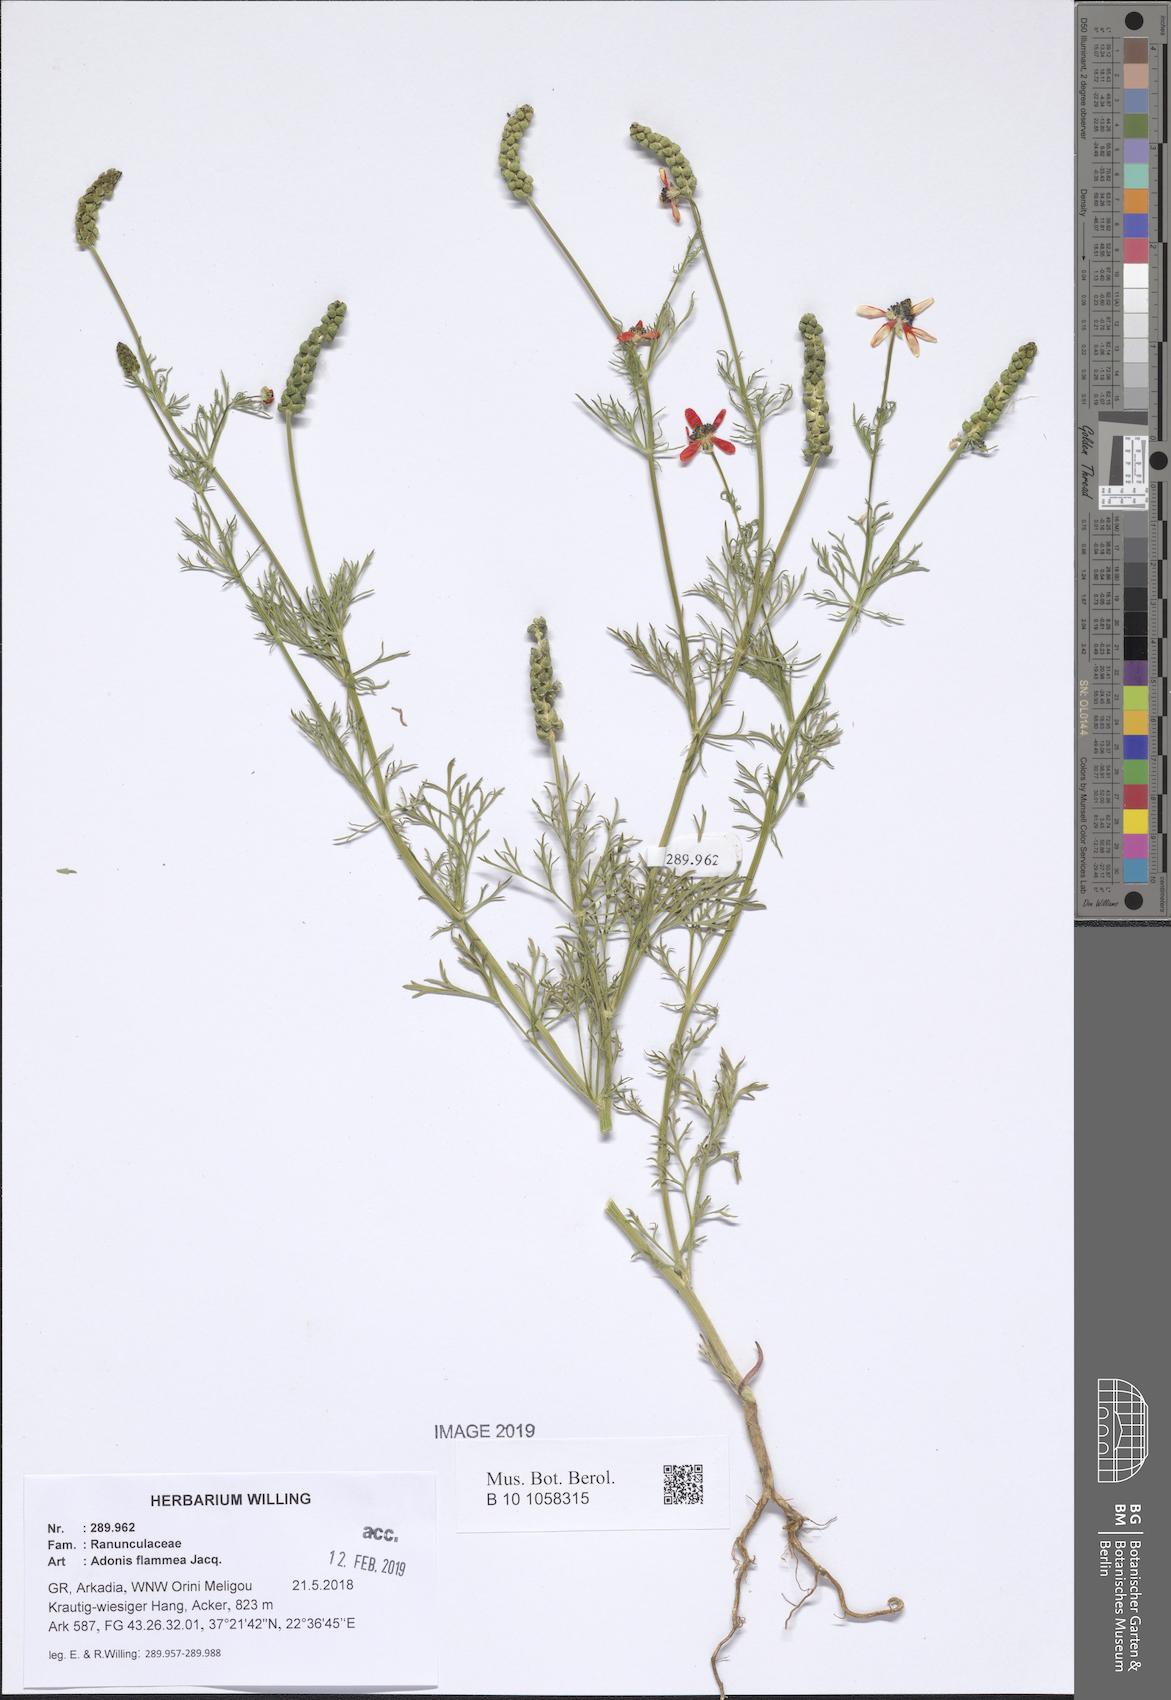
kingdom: Plantae
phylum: Tracheophyta
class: Magnoliopsida
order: Ranunculales
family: Ranunculaceae
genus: Adonis
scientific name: Adonis flammea
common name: Large pheasant's-eye
